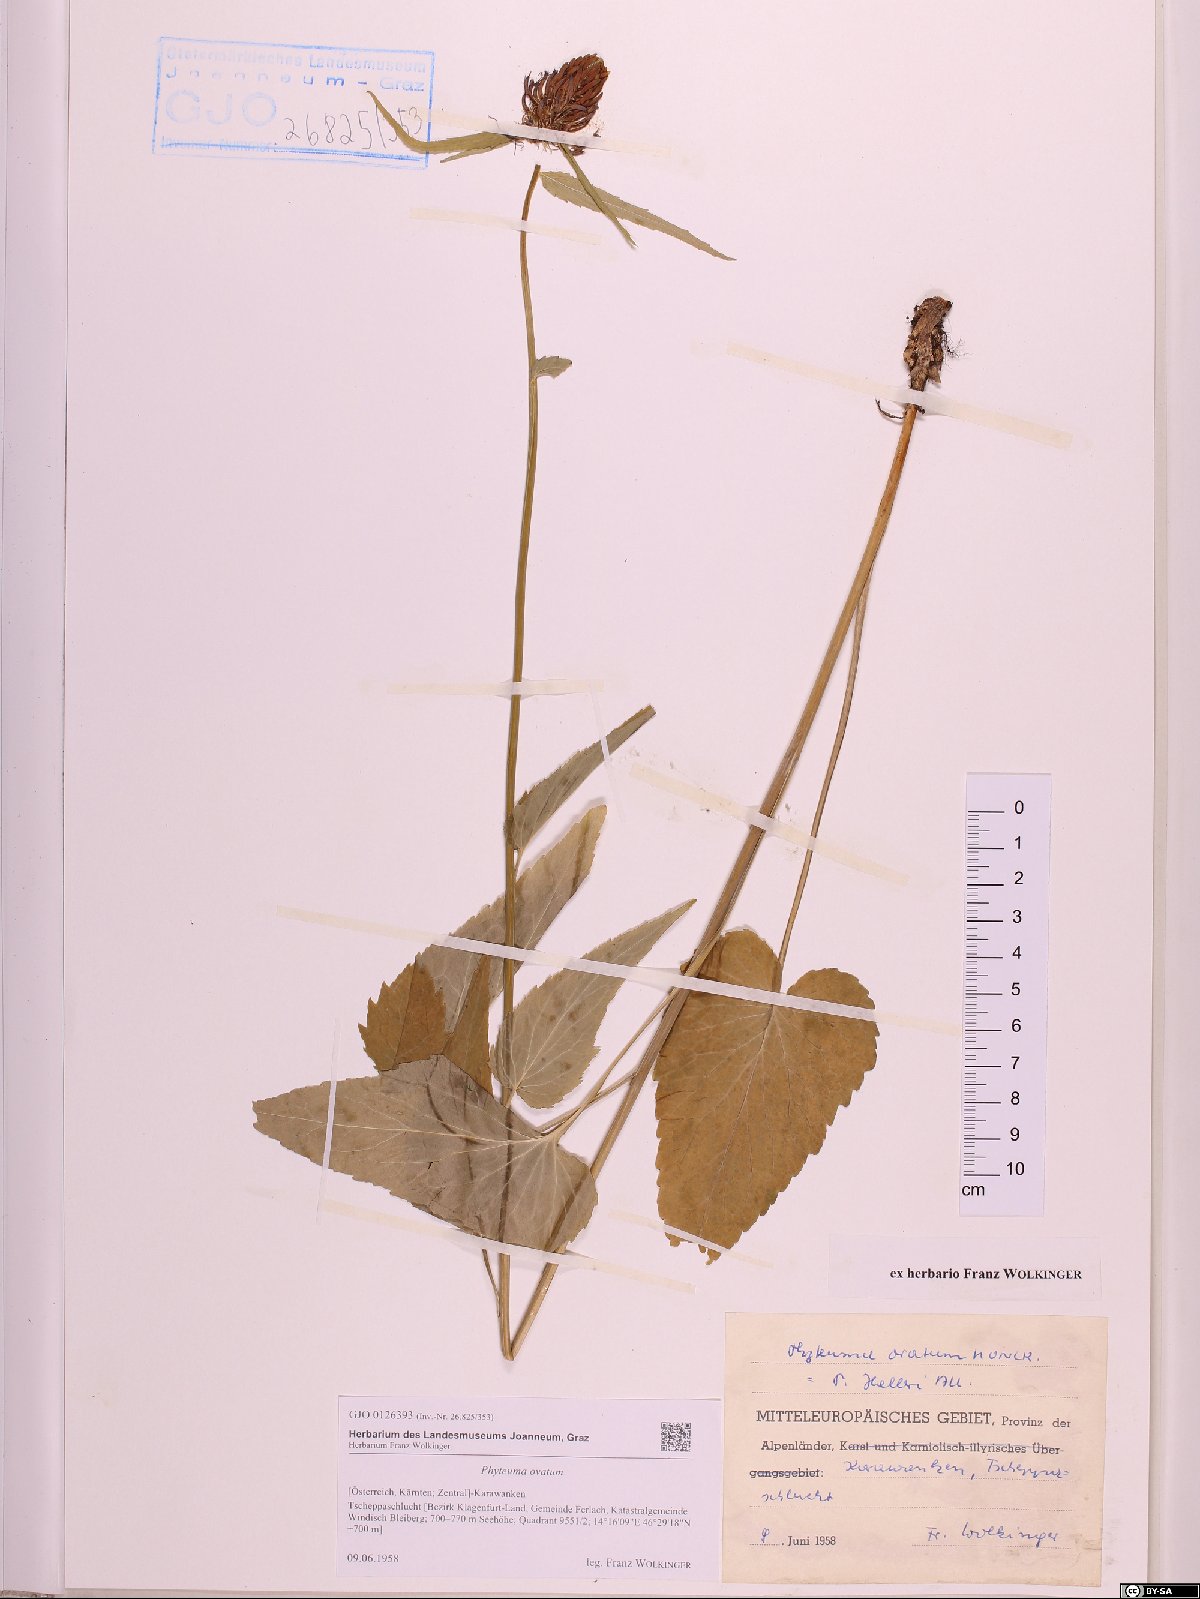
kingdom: Plantae
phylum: Tracheophyta
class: Magnoliopsida
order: Asterales
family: Campanulaceae
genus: Phyteuma
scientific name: Phyteuma ovatum
